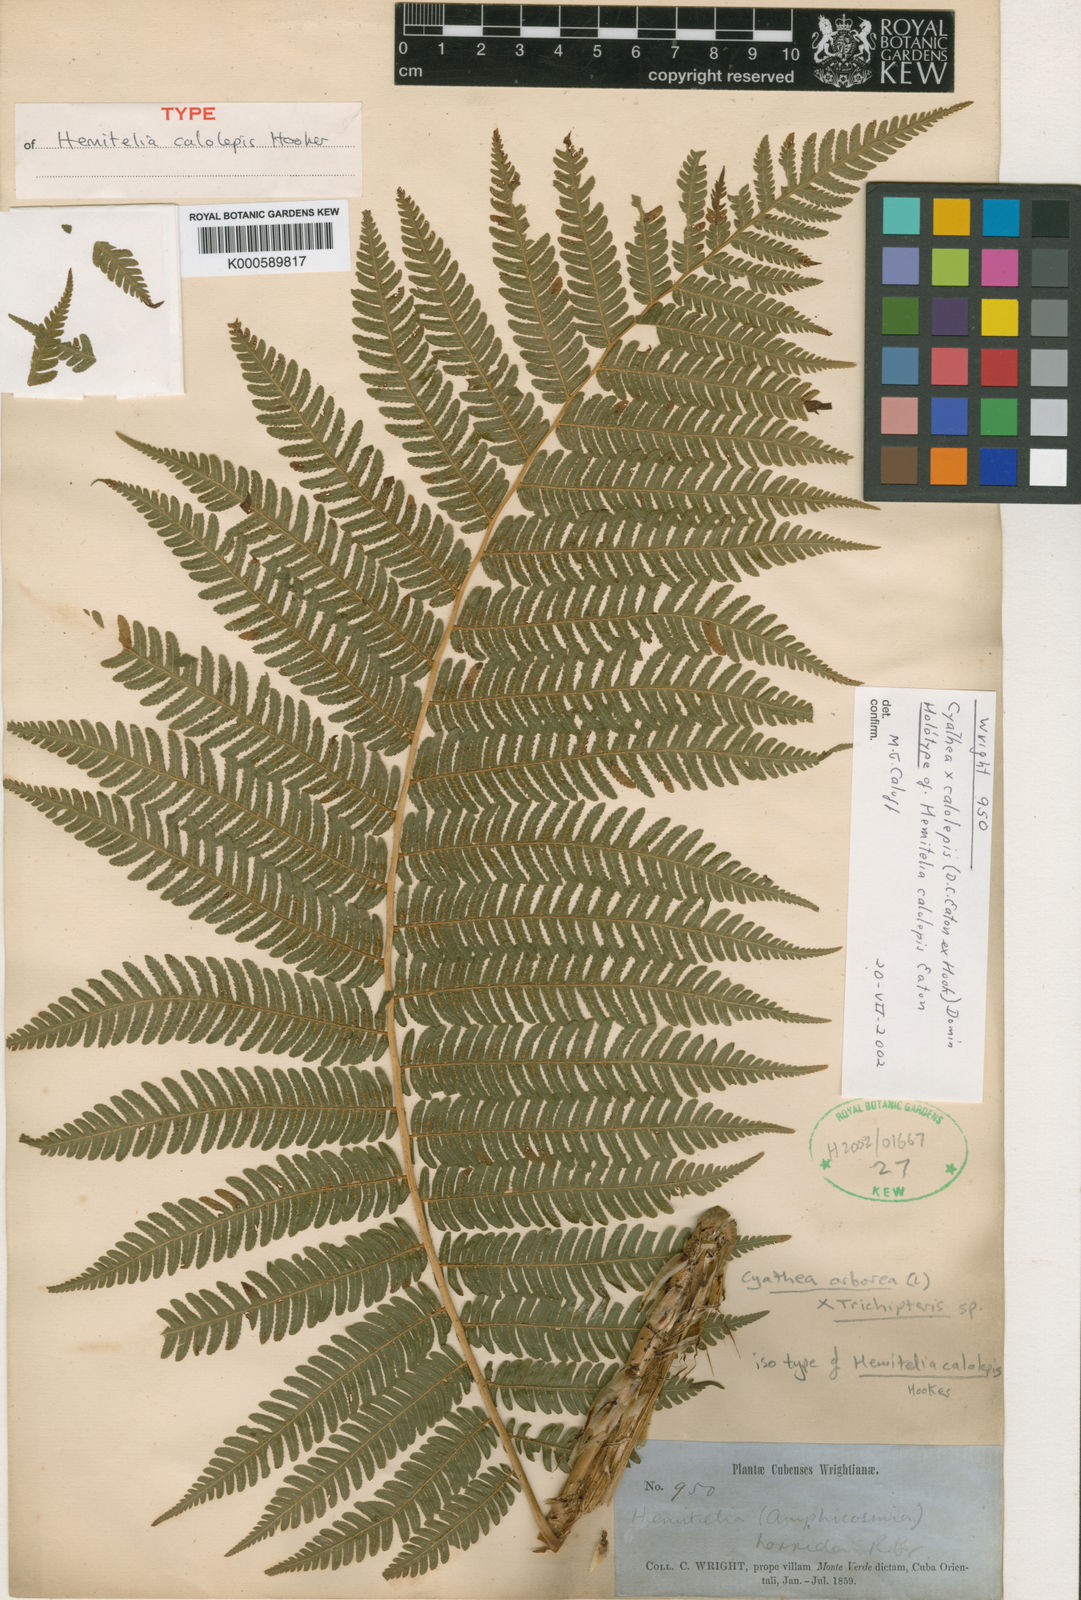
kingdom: Plantae
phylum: Tracheophyta
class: Polypodiopsida
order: Cyatheales
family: Cyatheaceae
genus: Cyathea
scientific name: Cyathea wilsonii
